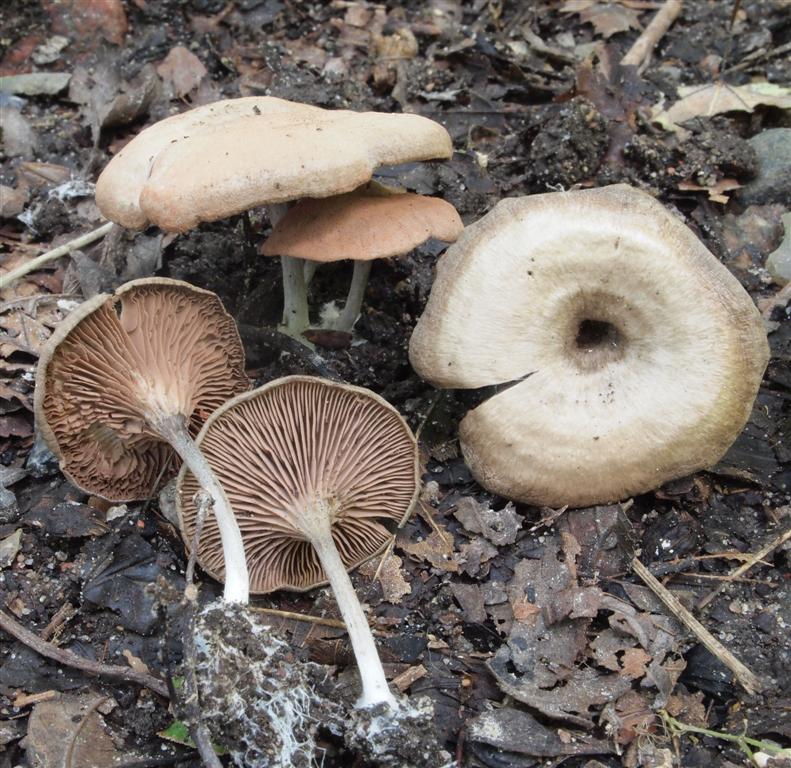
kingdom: Fungi
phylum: Basidiomycota
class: Agaricomycetes
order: Agaricales
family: Entolomataceae
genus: Entoloma
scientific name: Entoloma undatum
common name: bæltet rødblad
